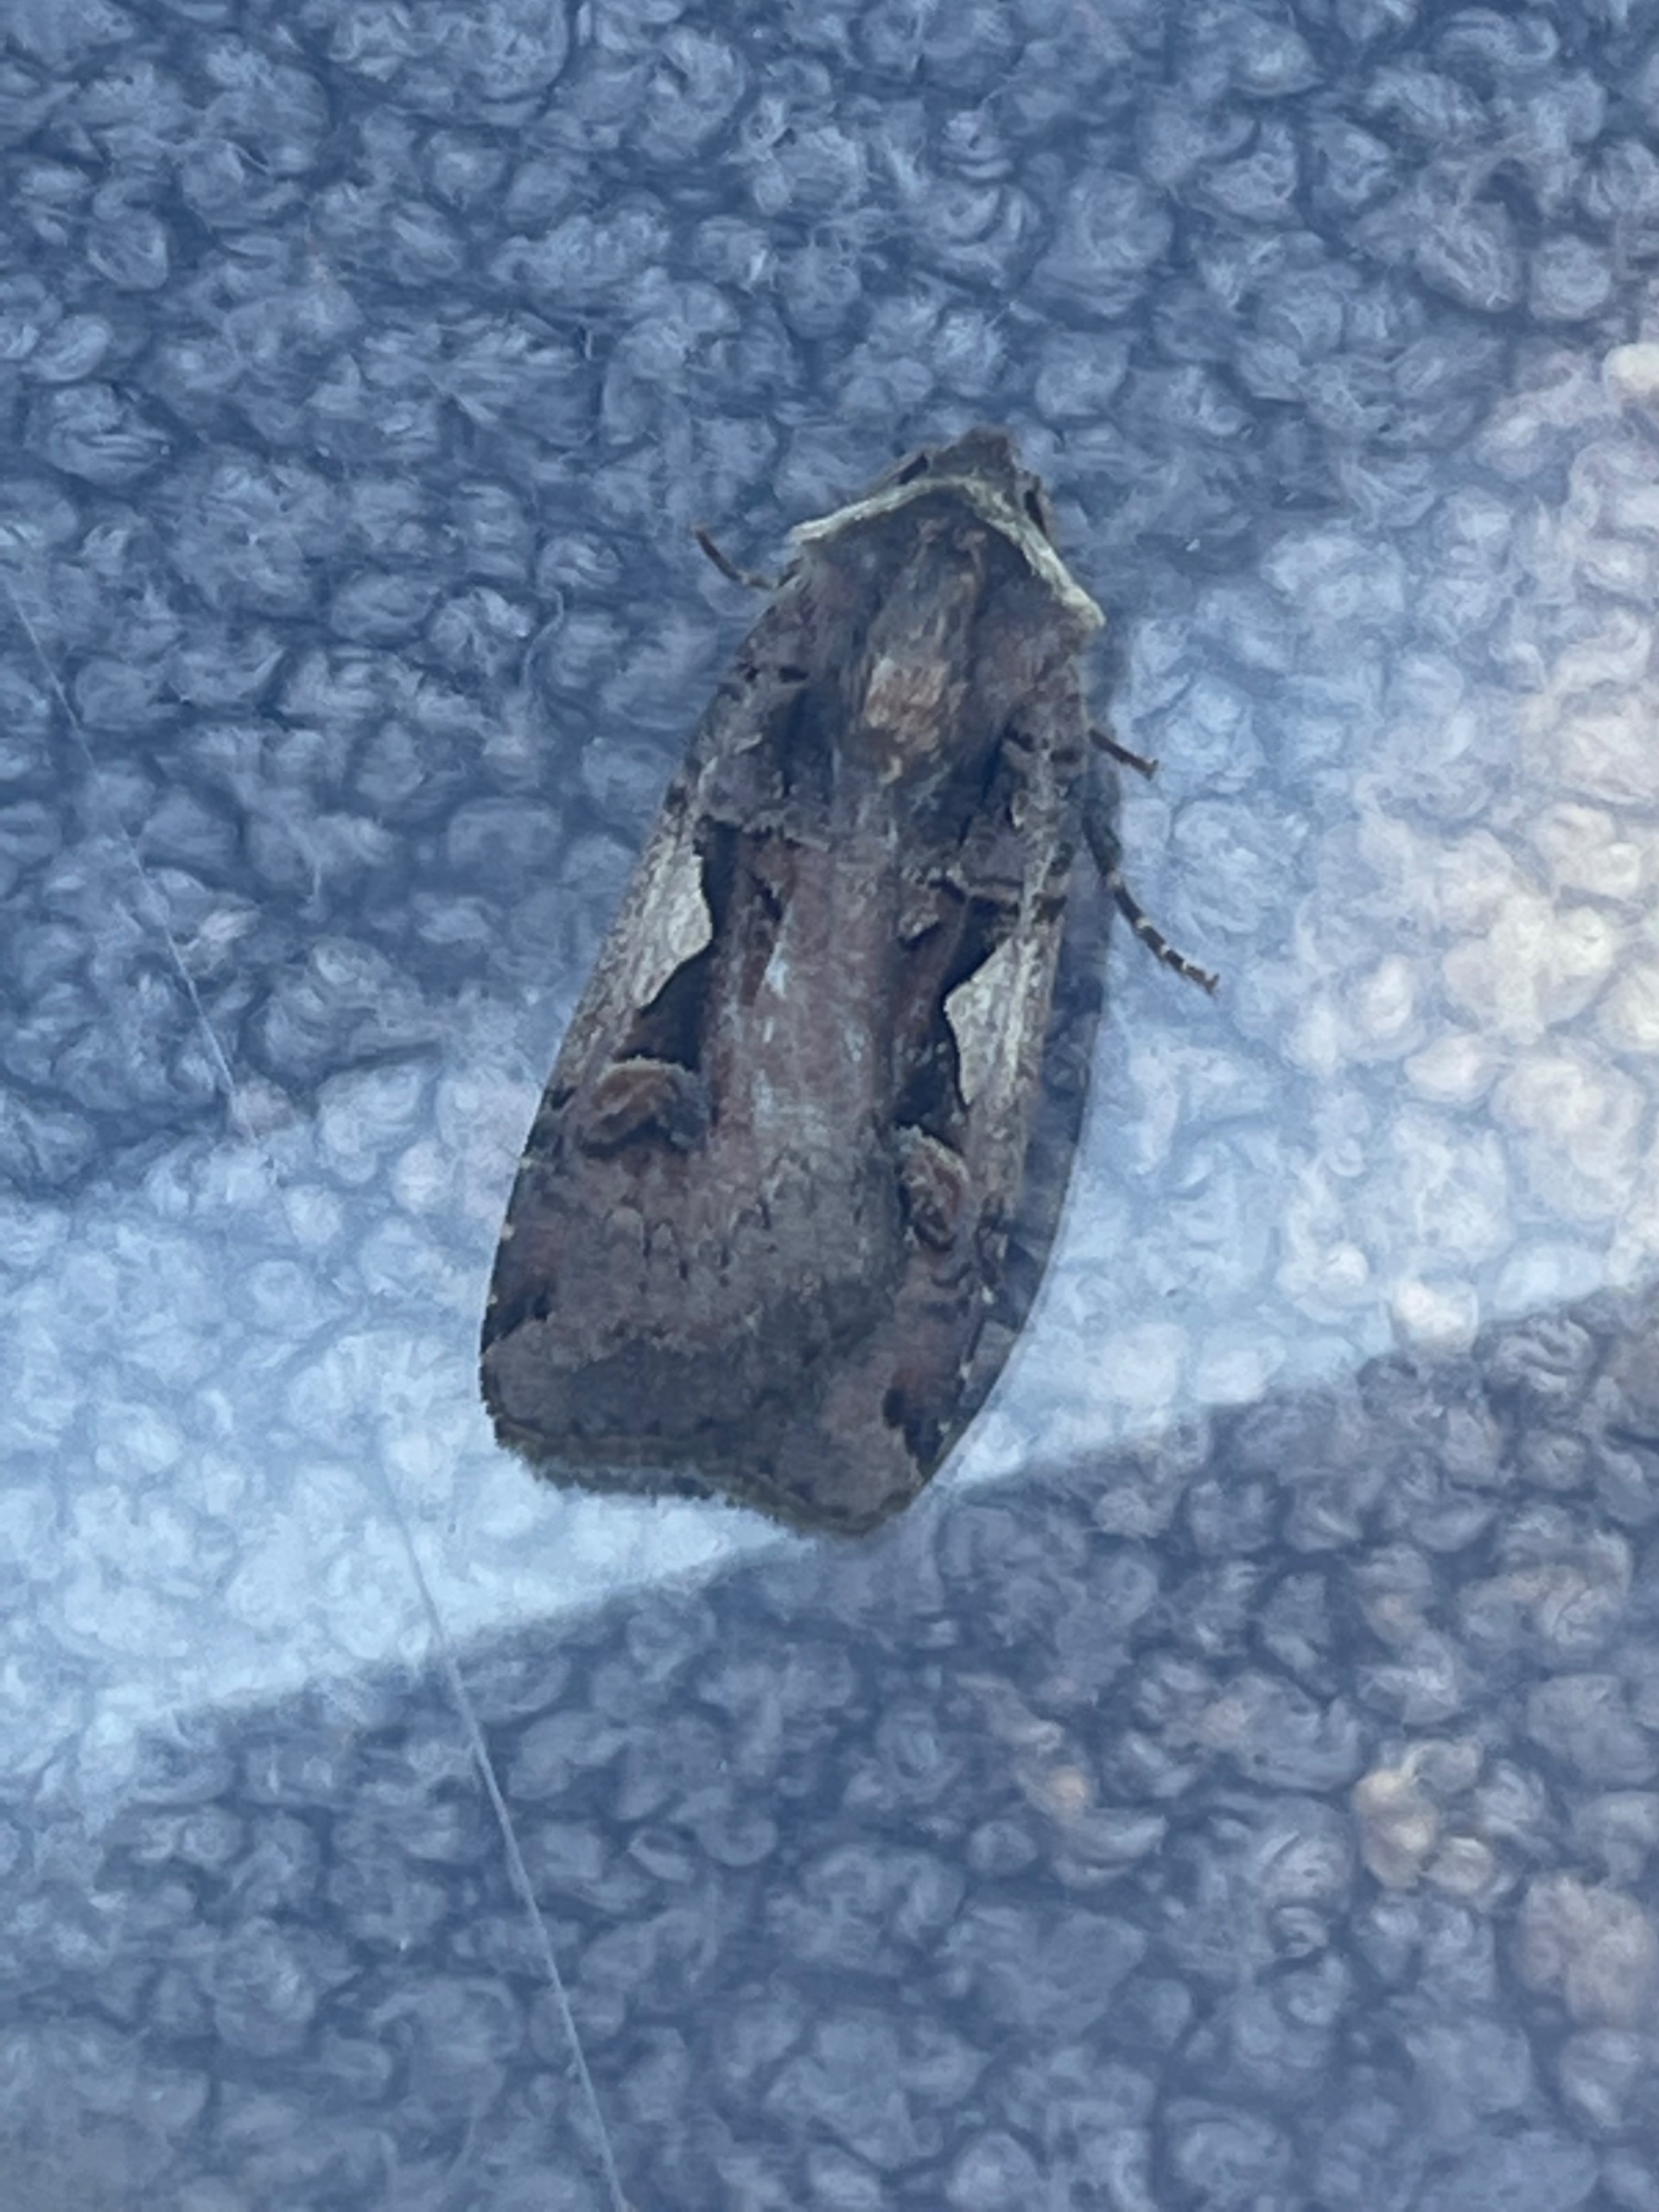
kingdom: Animalia
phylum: Arthropoda
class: Insecta
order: Lepidoptera
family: Noctuidae
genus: Xestia
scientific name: Xestia c-nigrum
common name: Det sorte c
